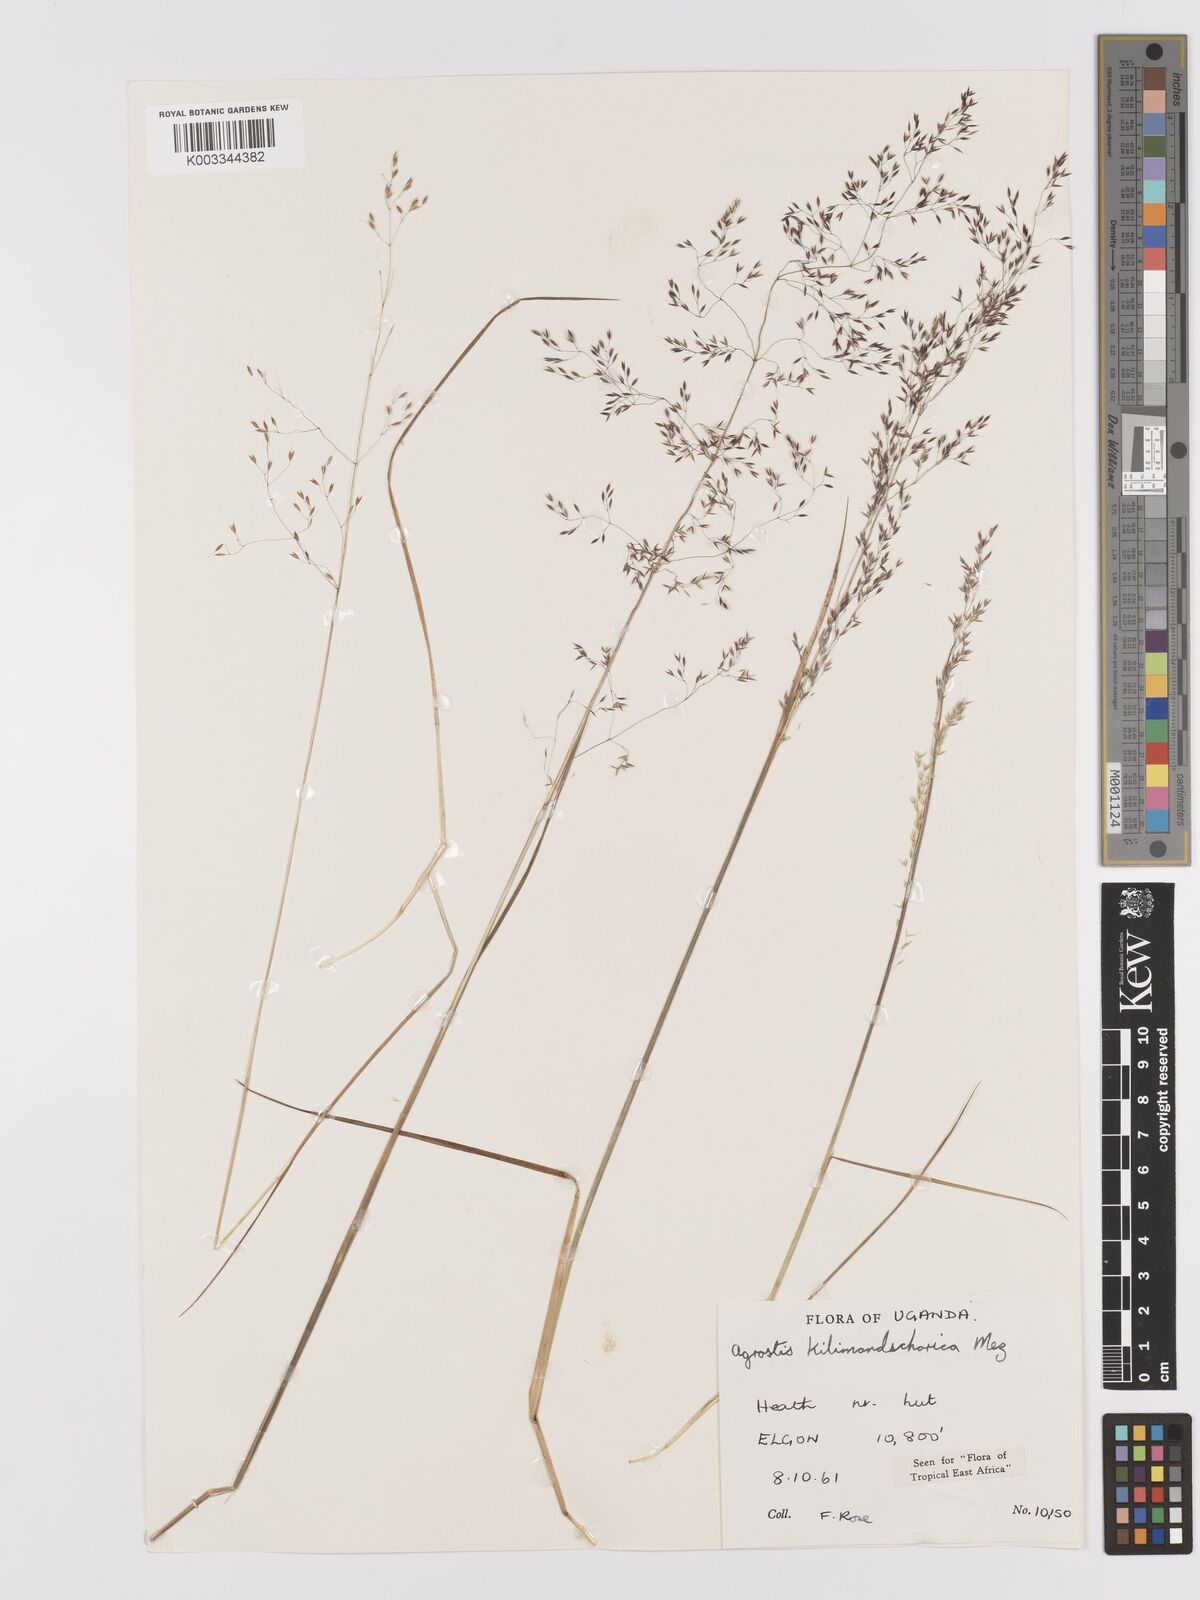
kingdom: Plantae
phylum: Tracheophyta
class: Liliopsida
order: Poales
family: Poaceae
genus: Agrostis
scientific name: Agrostis kilimandscharica
